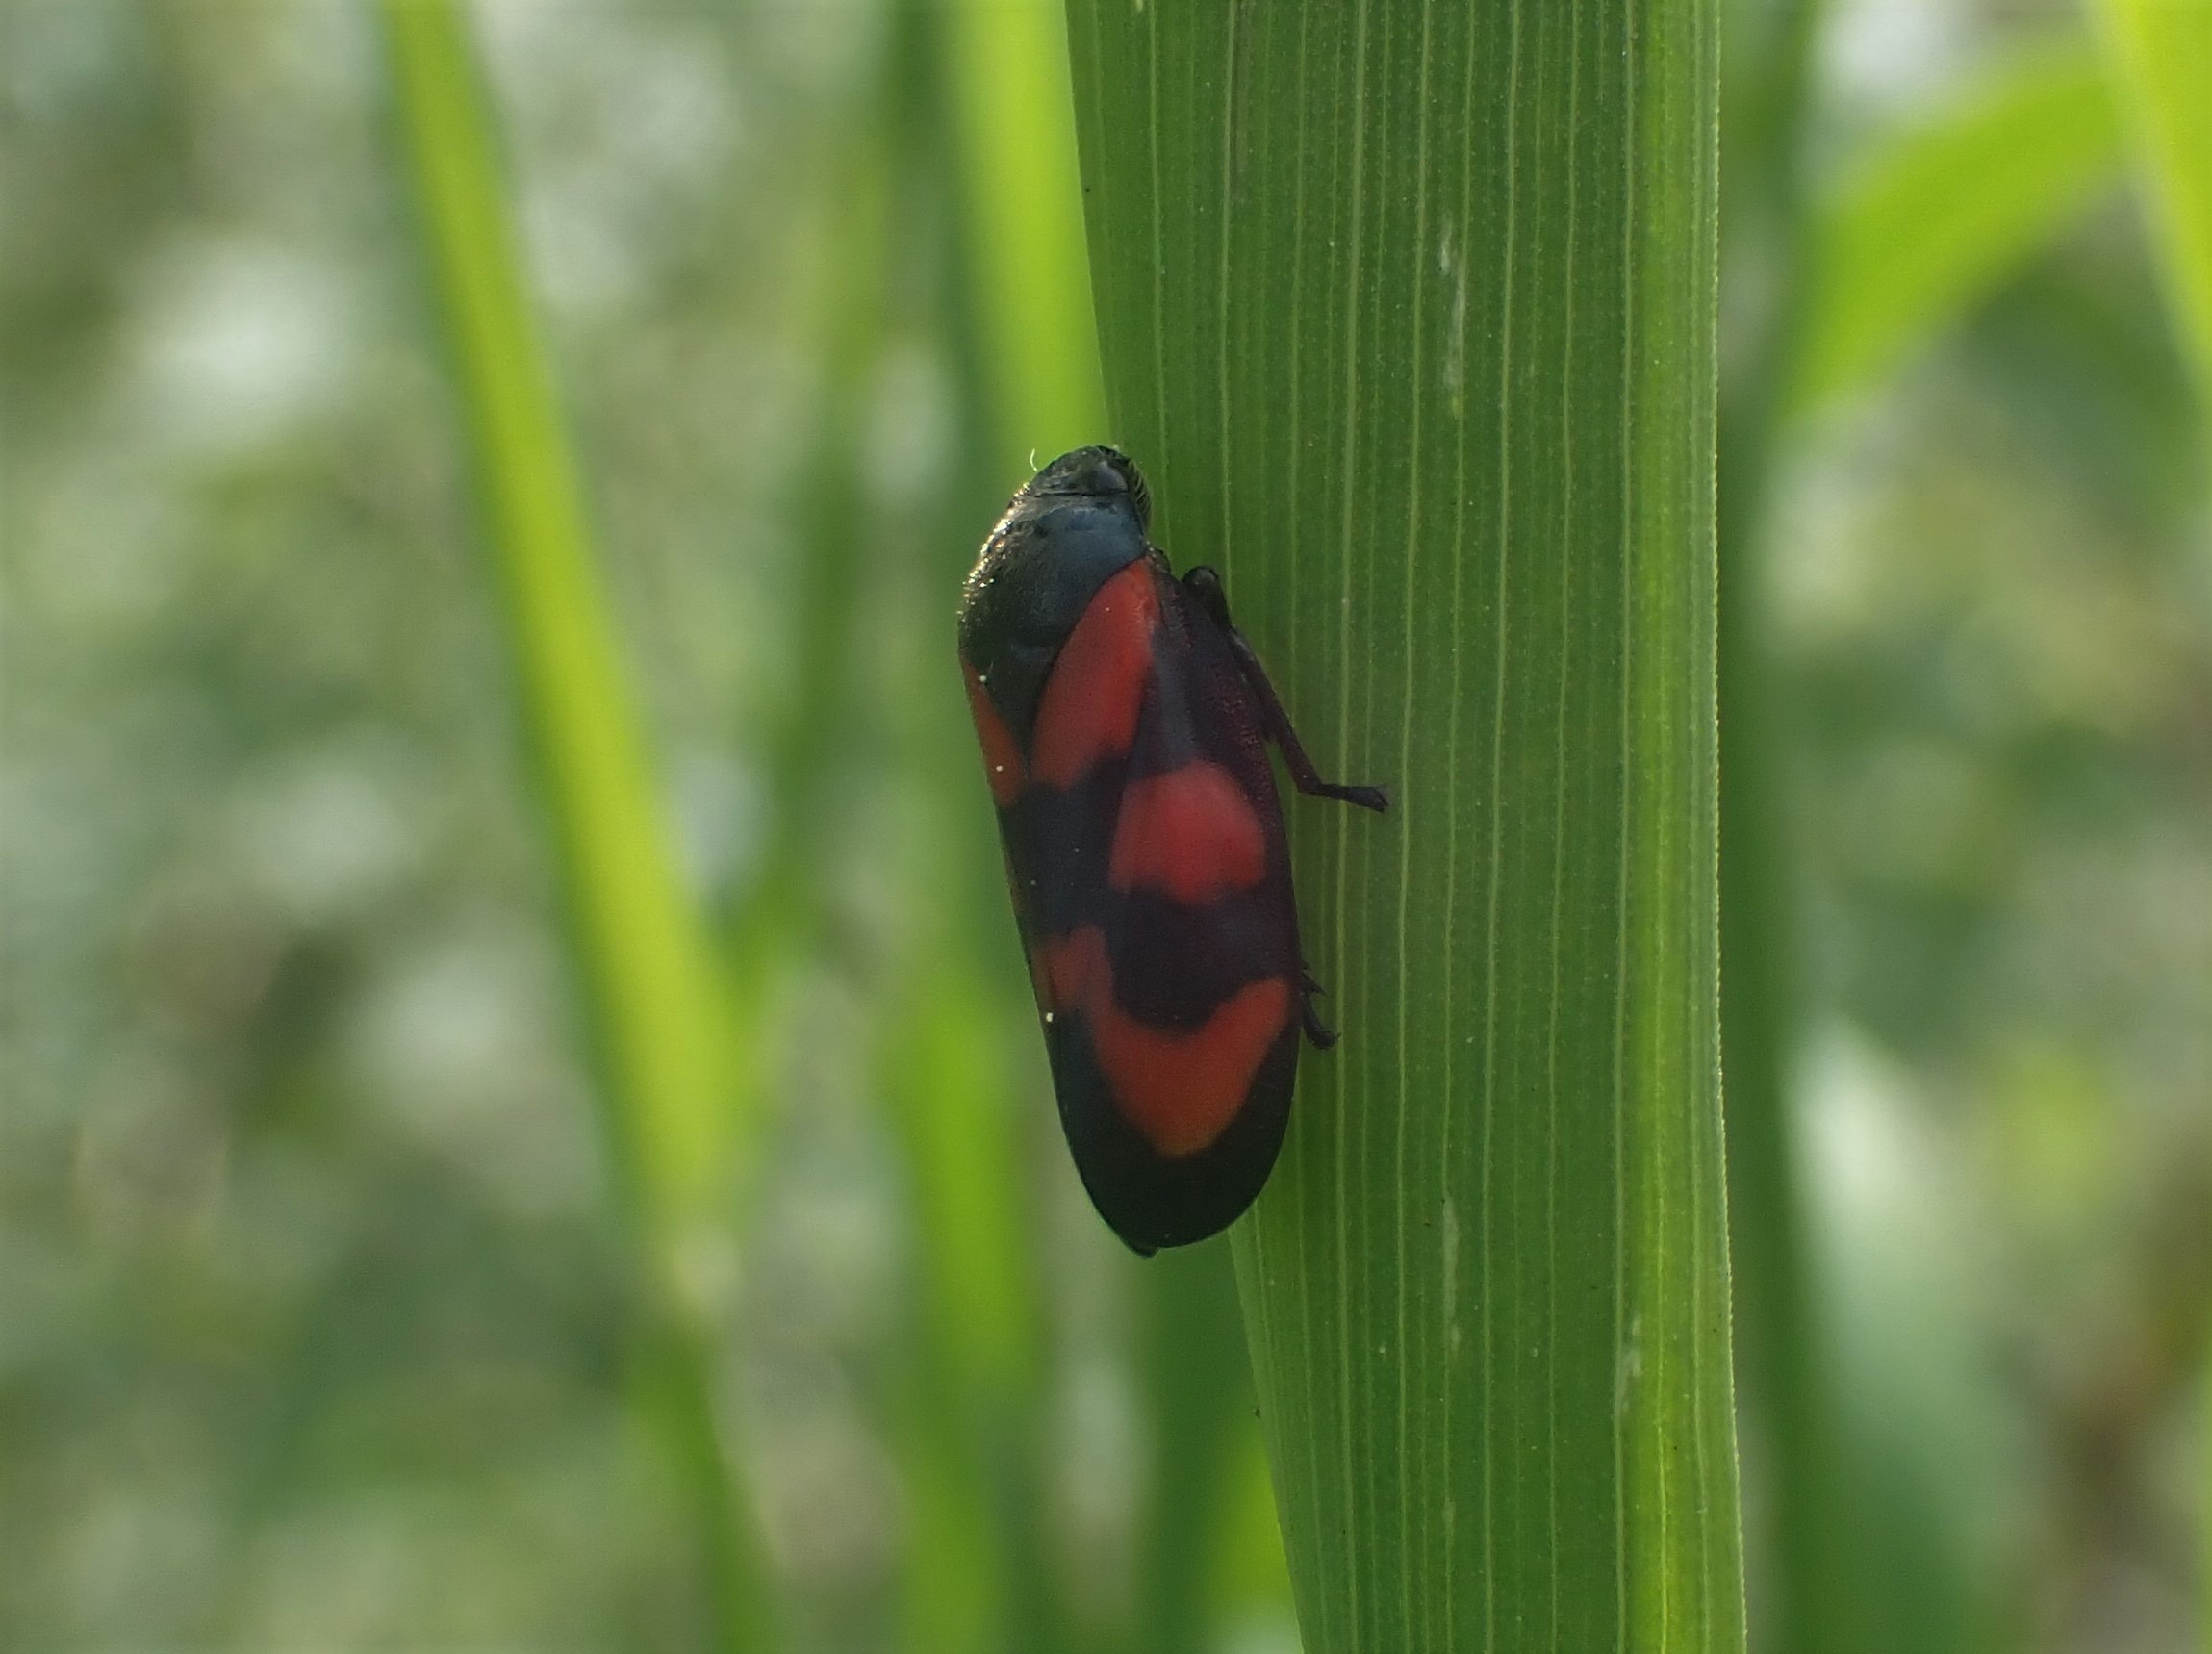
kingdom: Animalia
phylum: Arthropoda
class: Insecta
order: Hemiptera
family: Cercopidae
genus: Cercopis
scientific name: Cercopis vulnerata
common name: Blodcikade
